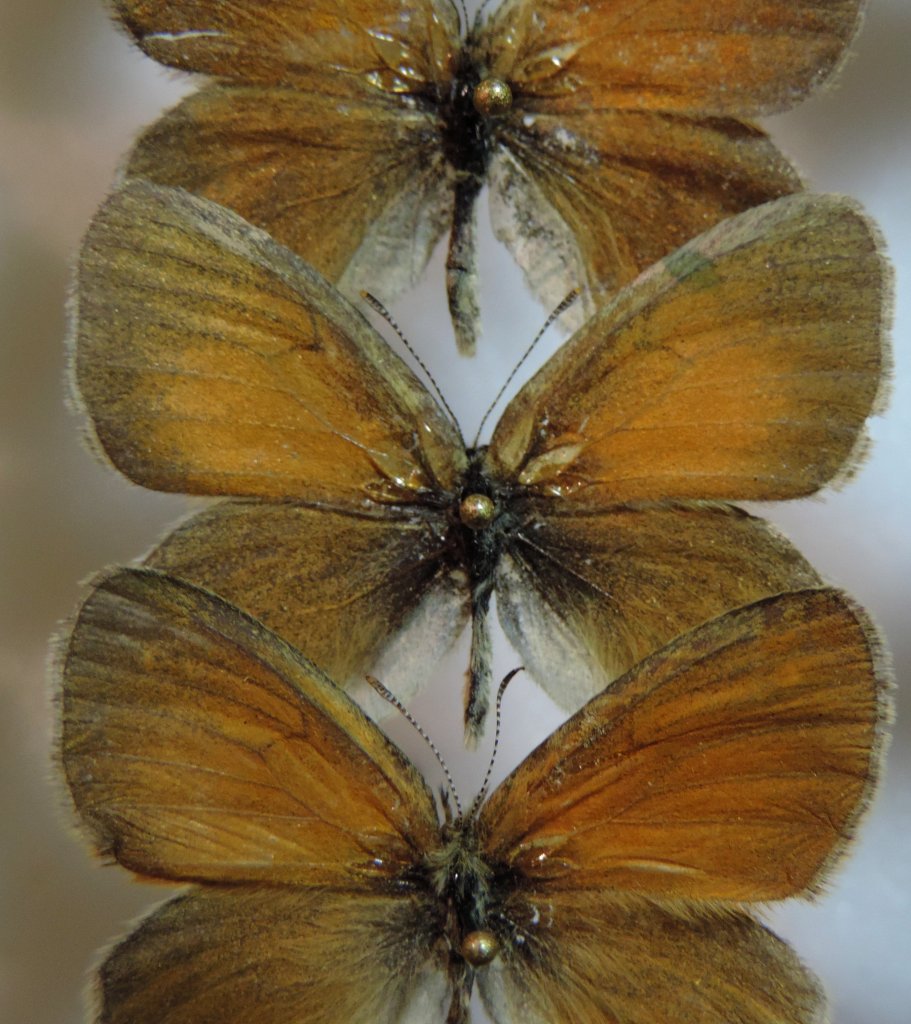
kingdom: Animalia
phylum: Arthropoda
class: Insecta
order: Lepidoptera
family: Nymphalidae
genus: Coenonympha
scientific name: Coenonympha tullia
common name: Large Heath
